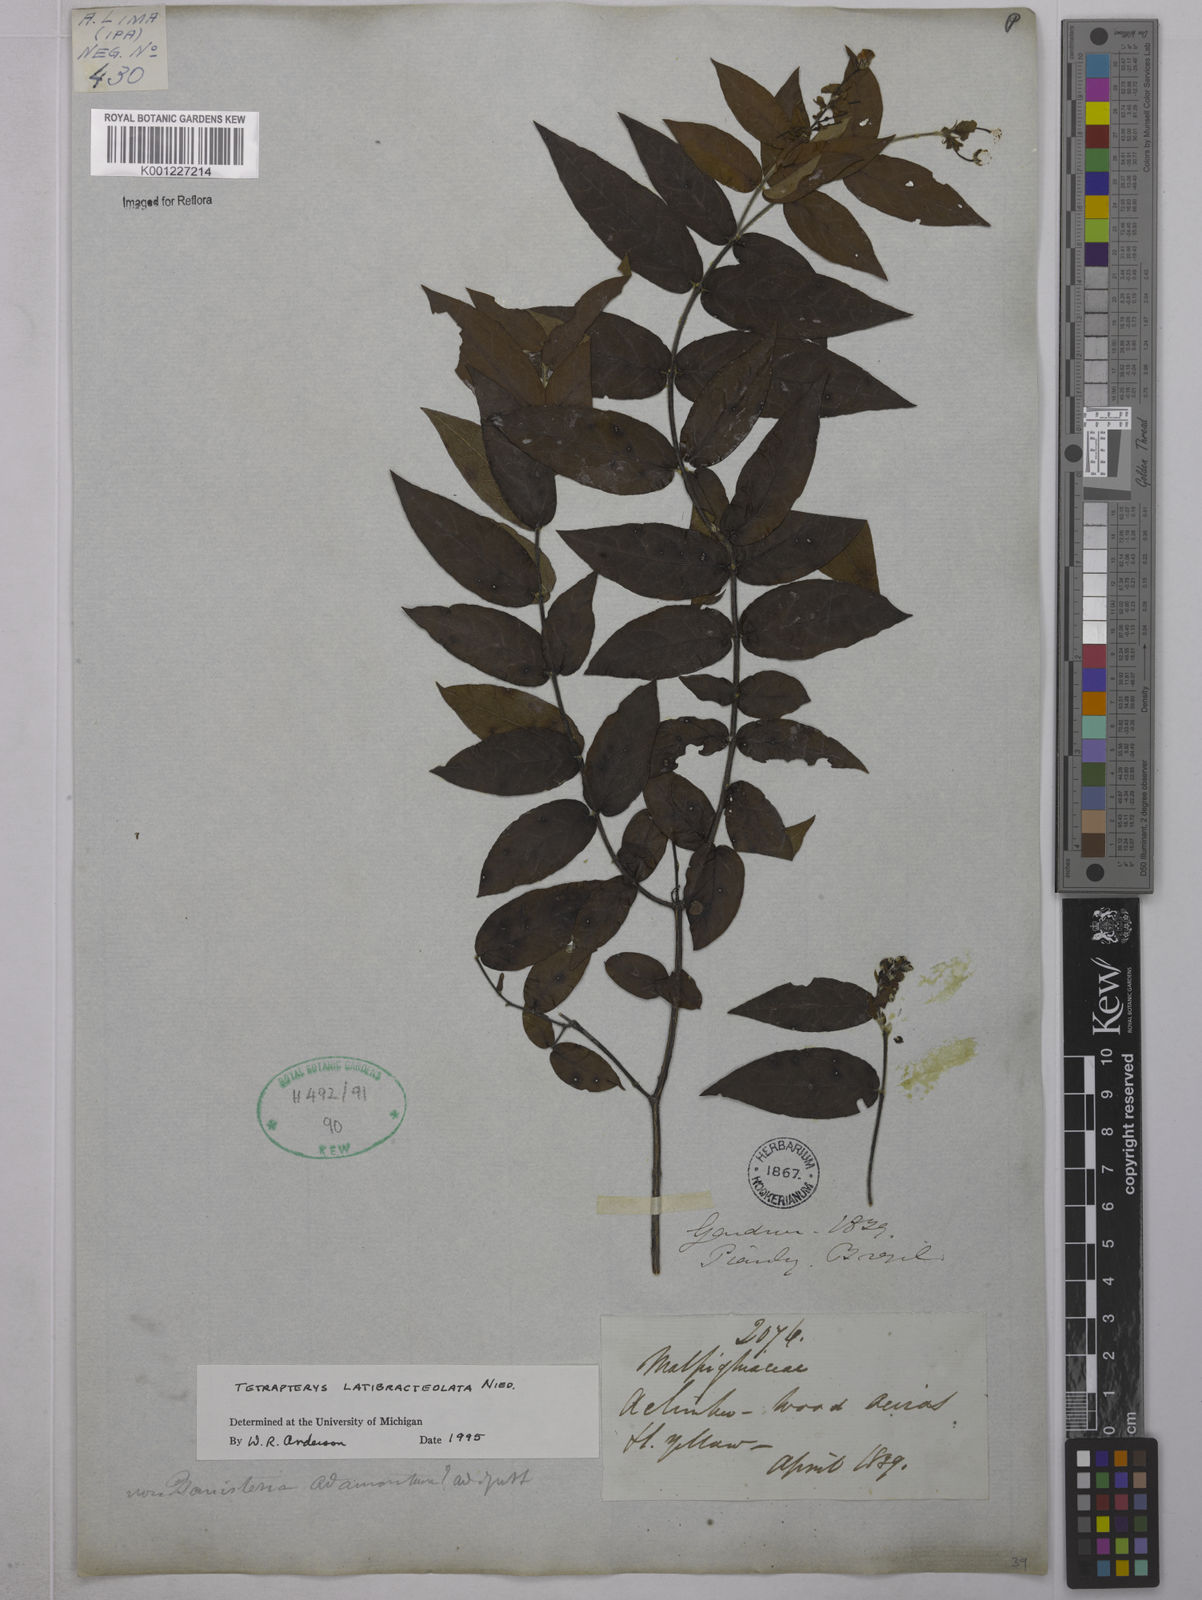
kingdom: Plantae
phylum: Tracheophyta
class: Magnoliopsida
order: Malpighiales
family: Malpighiaceae
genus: Tetrapterys
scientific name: Tetrapterys
